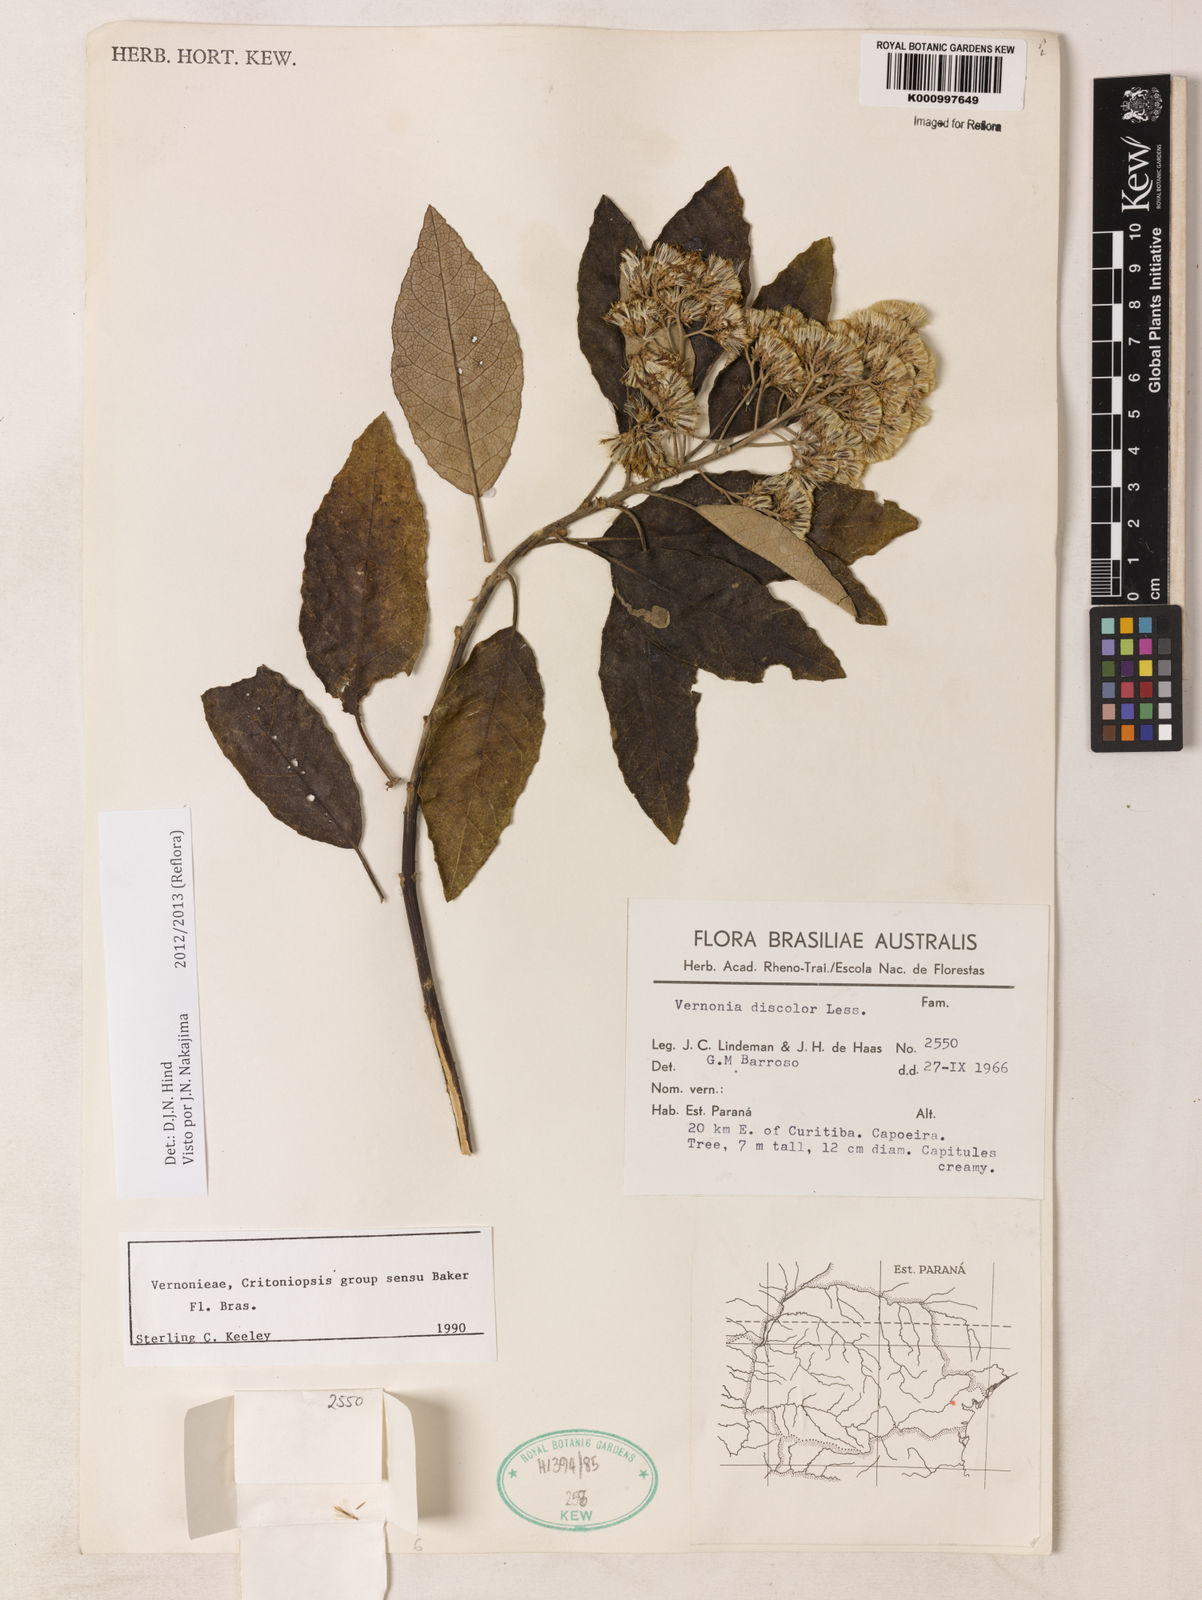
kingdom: Plantae
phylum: Tracheophyta
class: Magnoliopsida
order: Asterales
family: Asteraceae
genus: Vernonanthura
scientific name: Vernonanthura discolor
